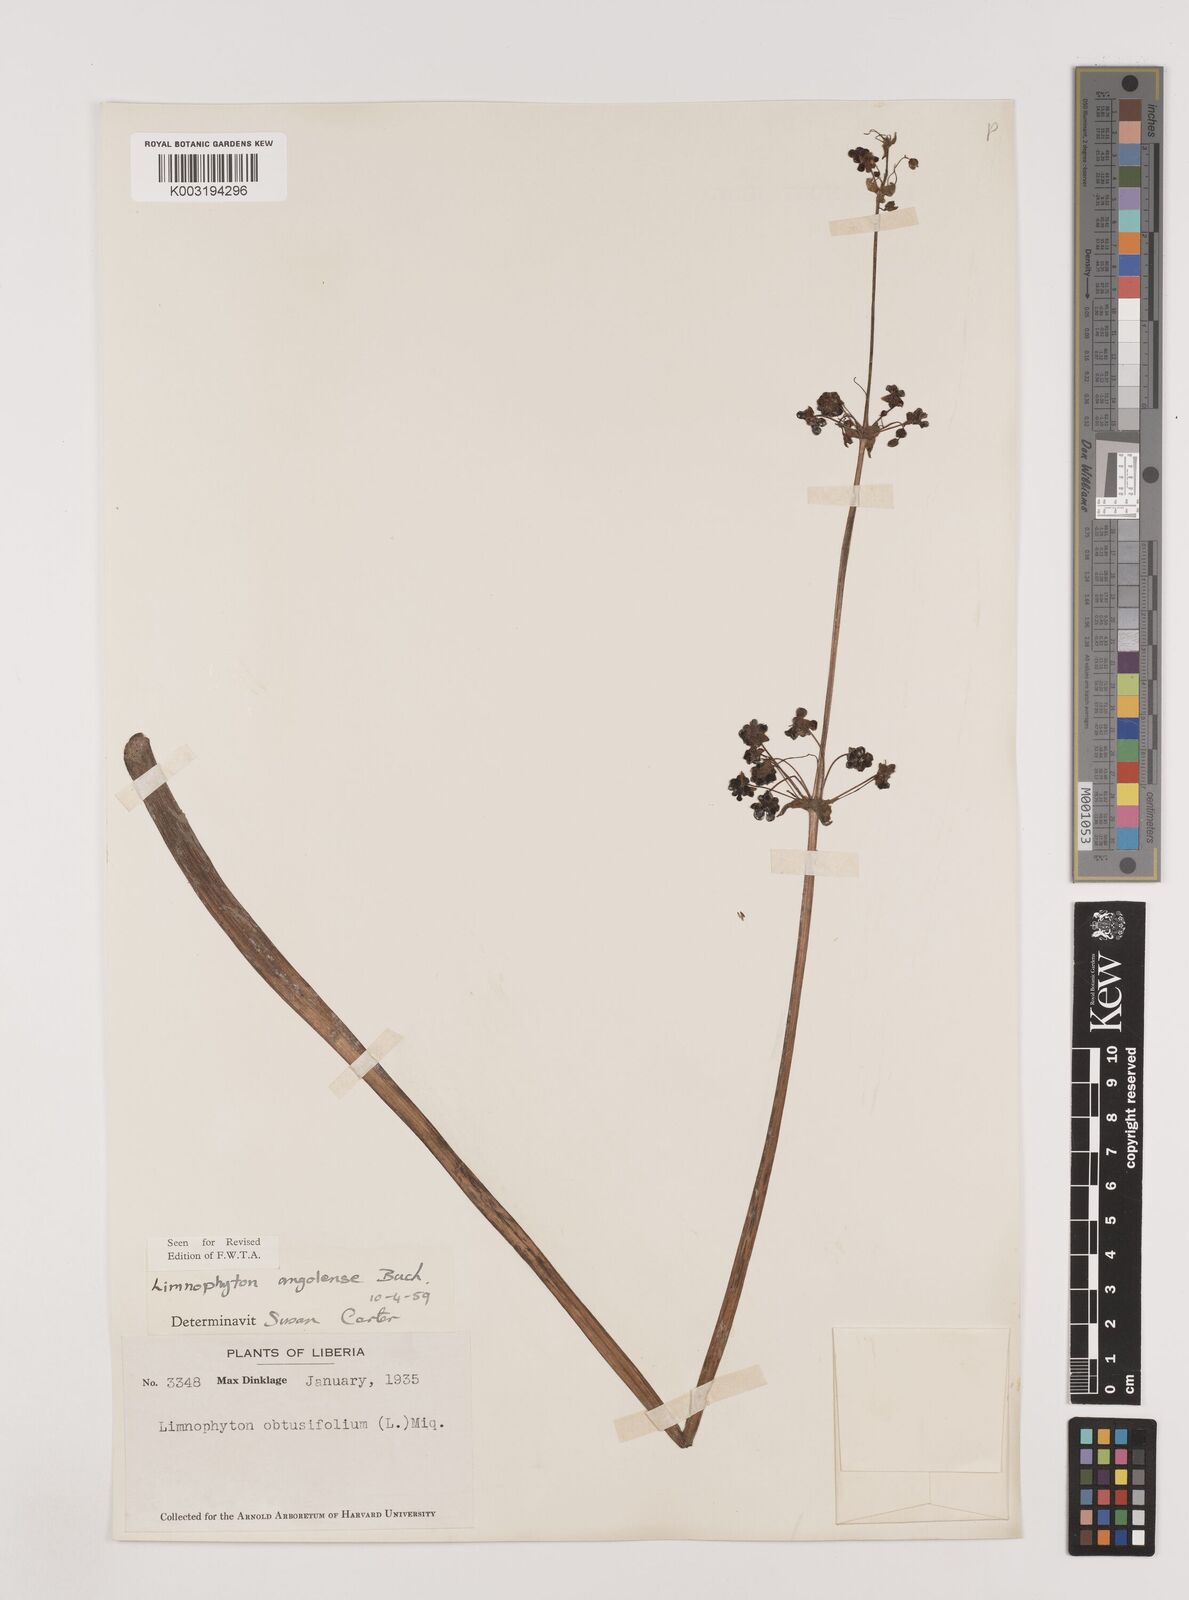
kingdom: Plantae
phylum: Tracheophyta
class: Liliopsida
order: Alismatales
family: Alismataceae
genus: Limnophyton
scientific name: Limnophyton angolense
